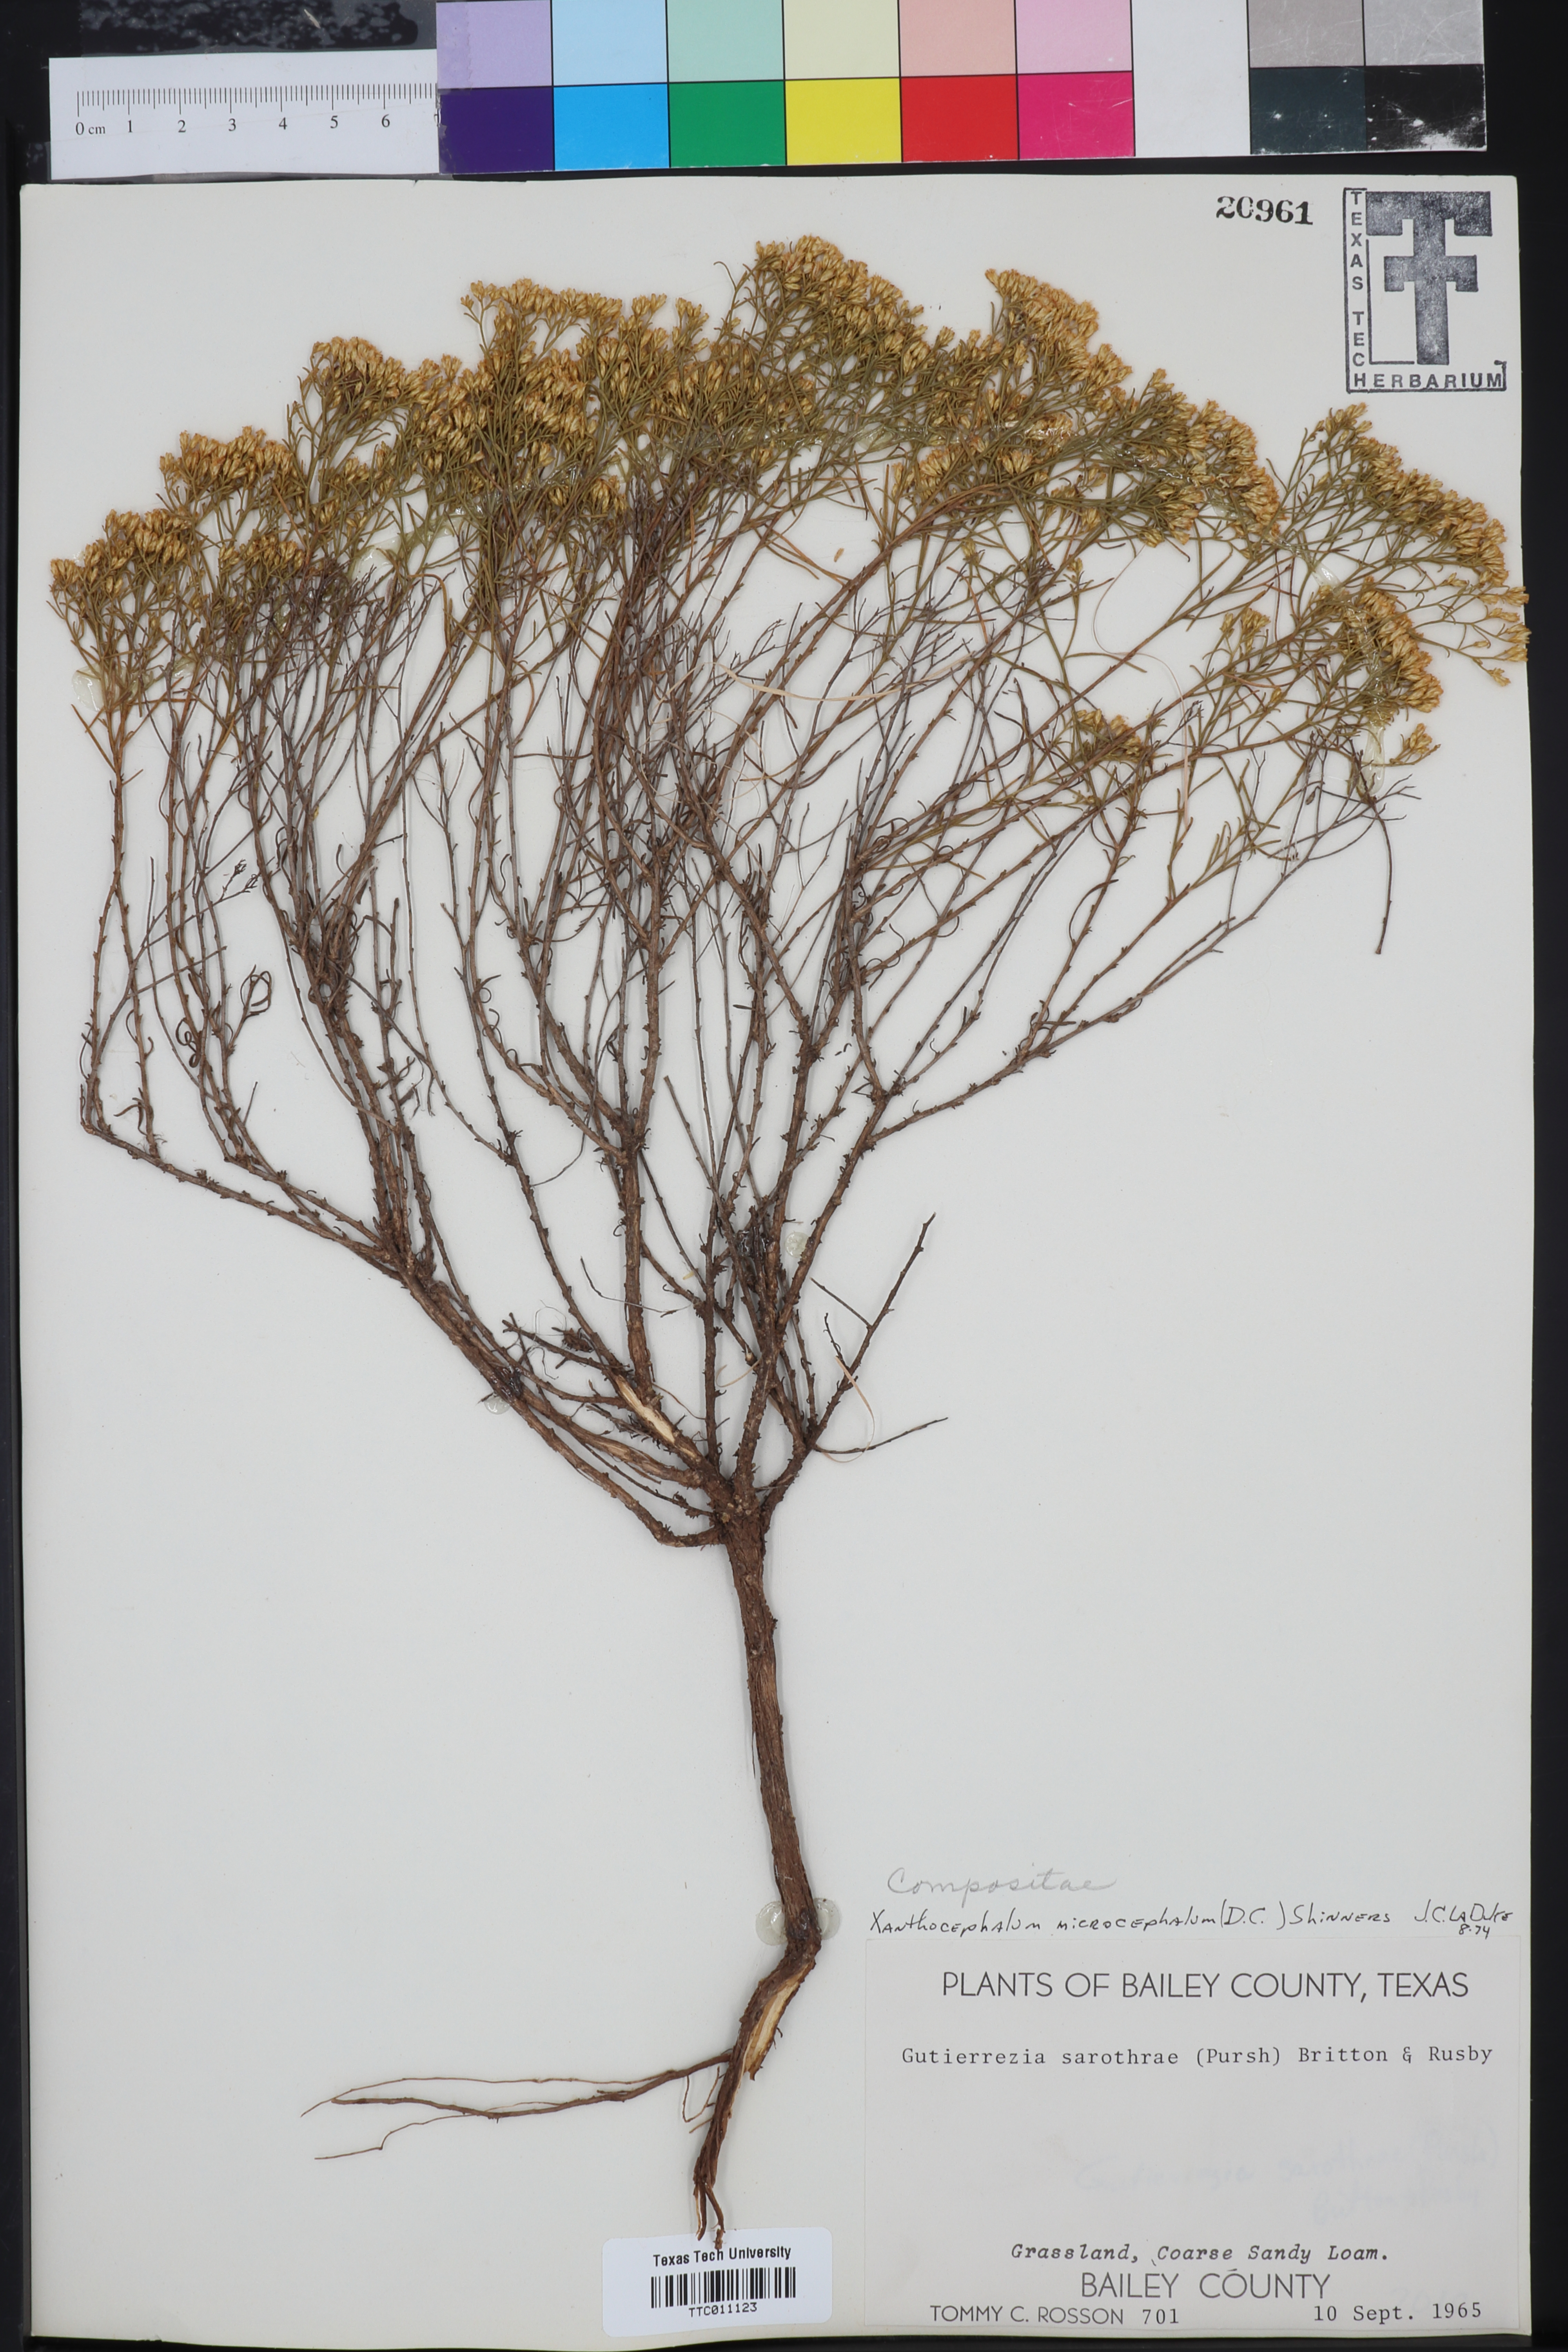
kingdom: Plantae
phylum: Tracheophyta
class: Magnoliopsida
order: Asterales
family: Asteraceae
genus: Gutierrezia
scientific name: Gutierrezia microcephala
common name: Thread snakeweed
